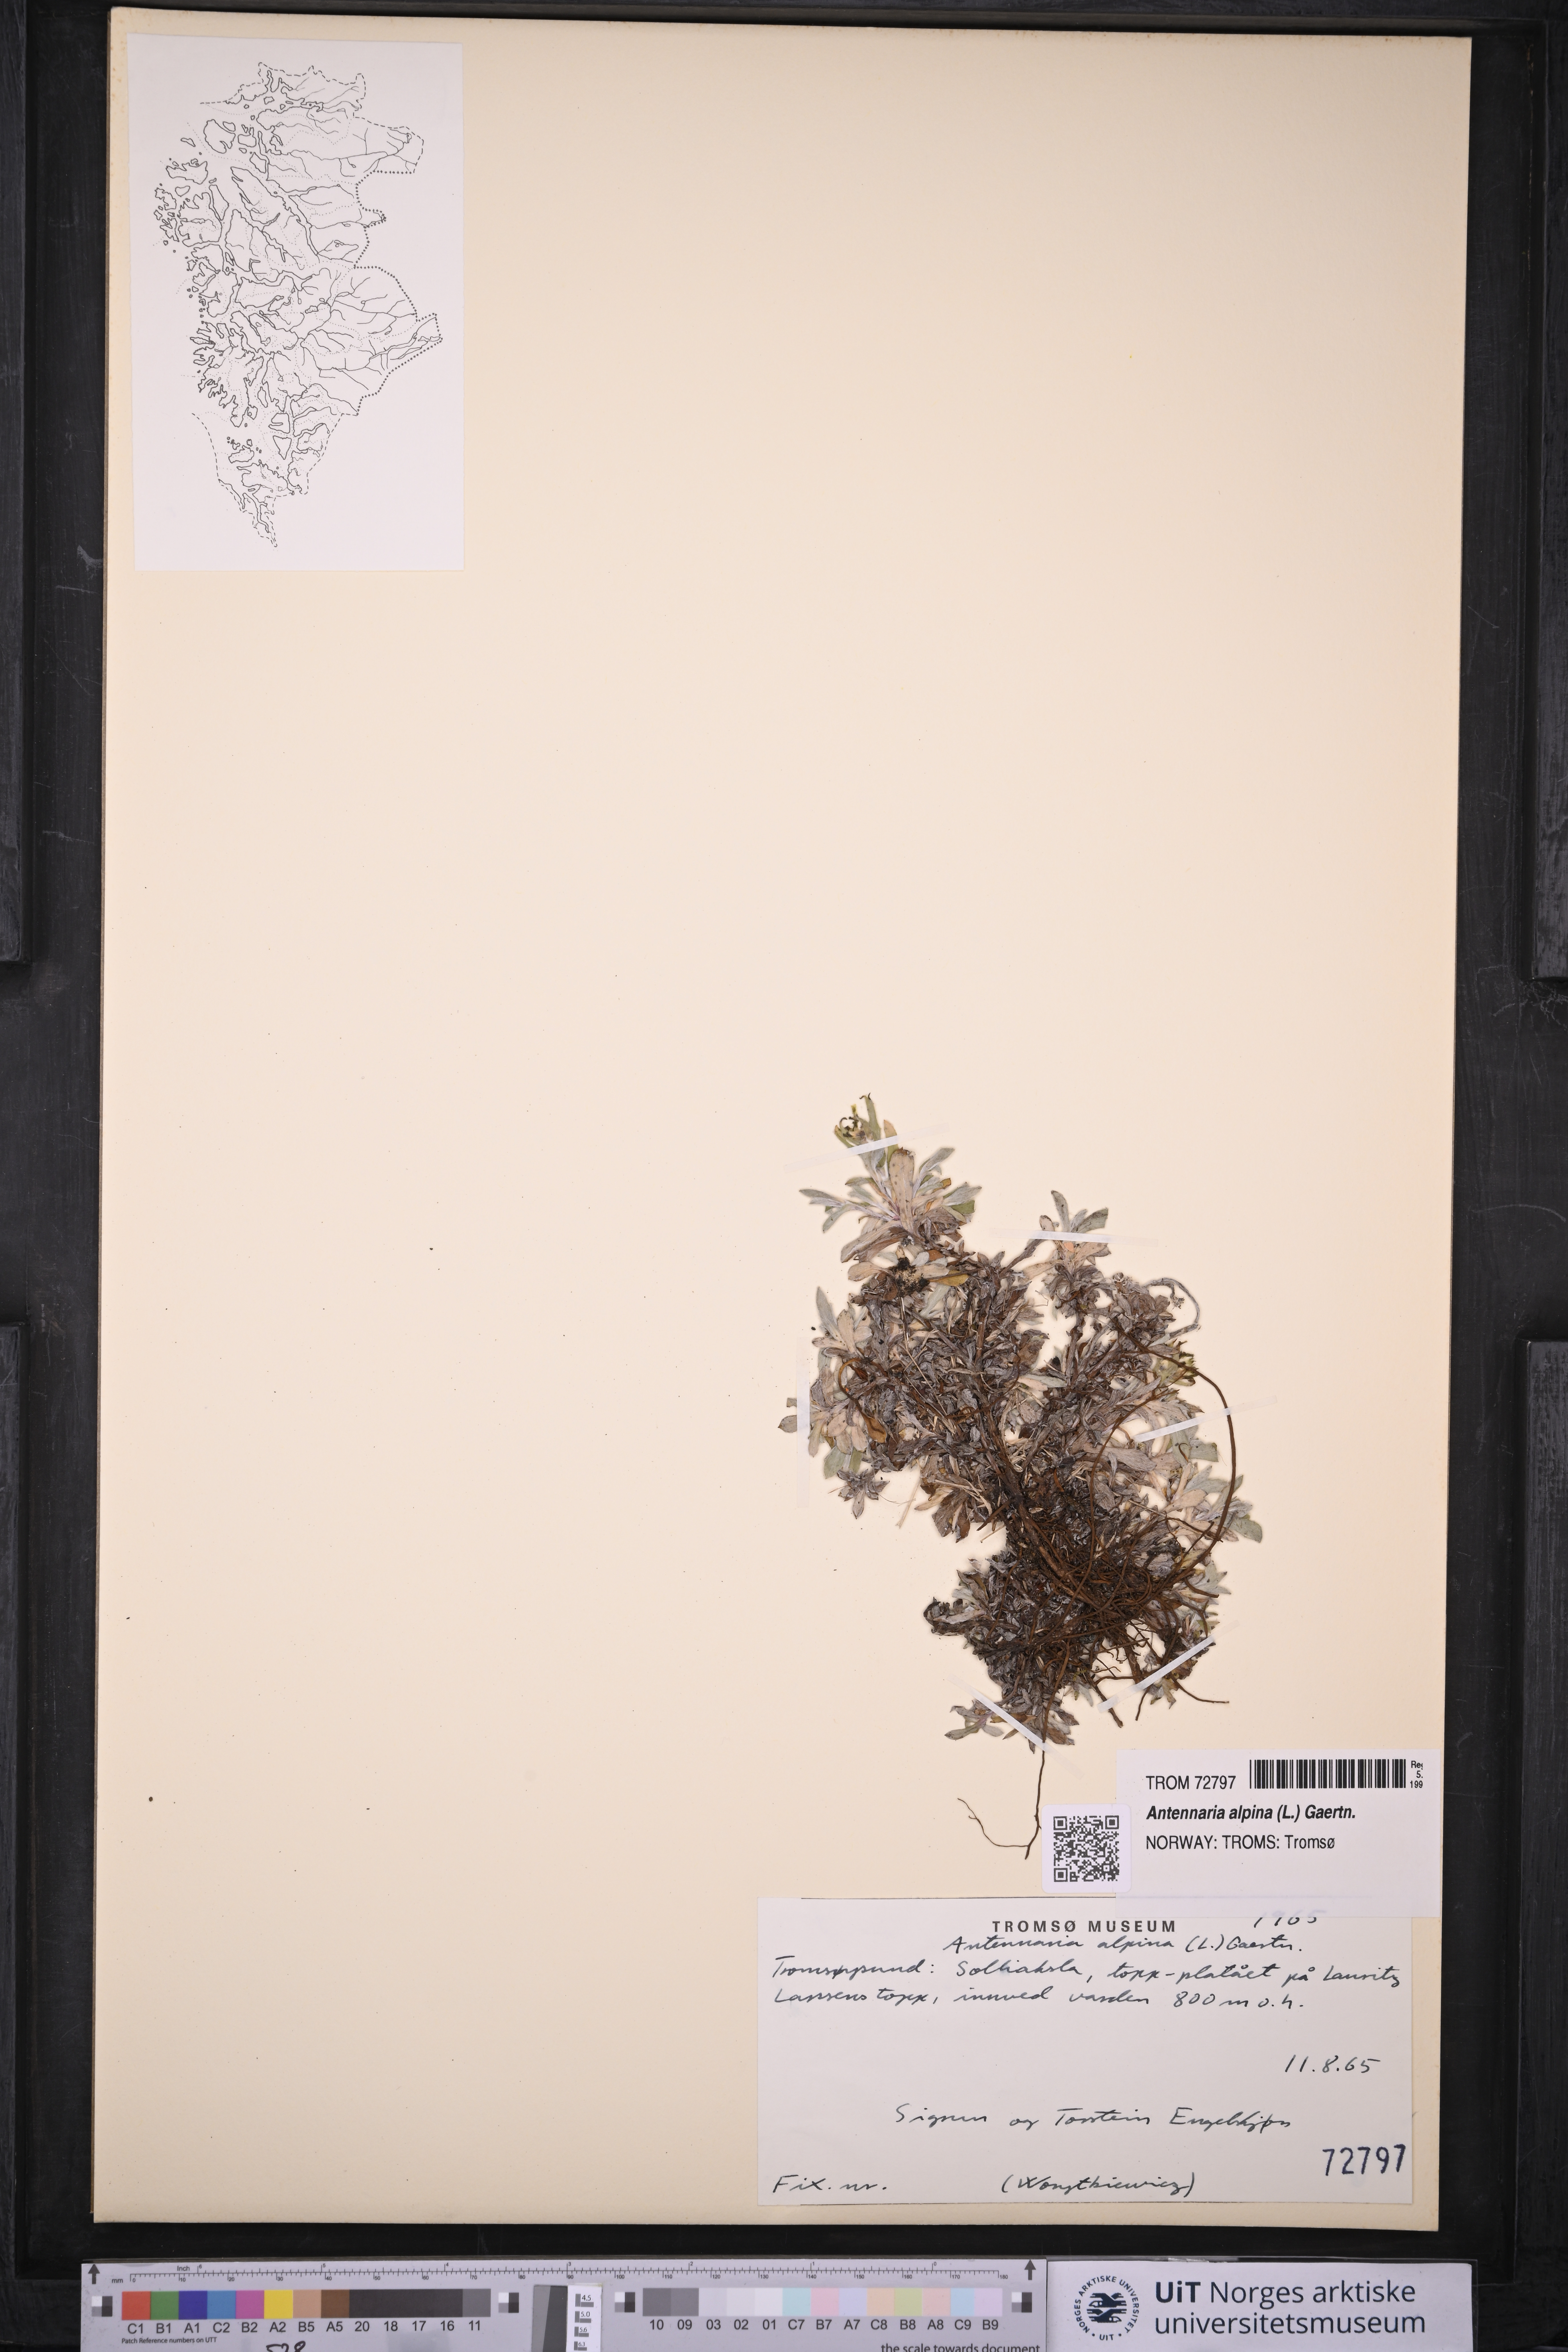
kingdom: Plantae
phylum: Tracheophyta
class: Magnoliopsida
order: Asterales
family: Asteraceae
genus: Antennaria
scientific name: Antennaria alpina
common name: Alpine pussytoes
